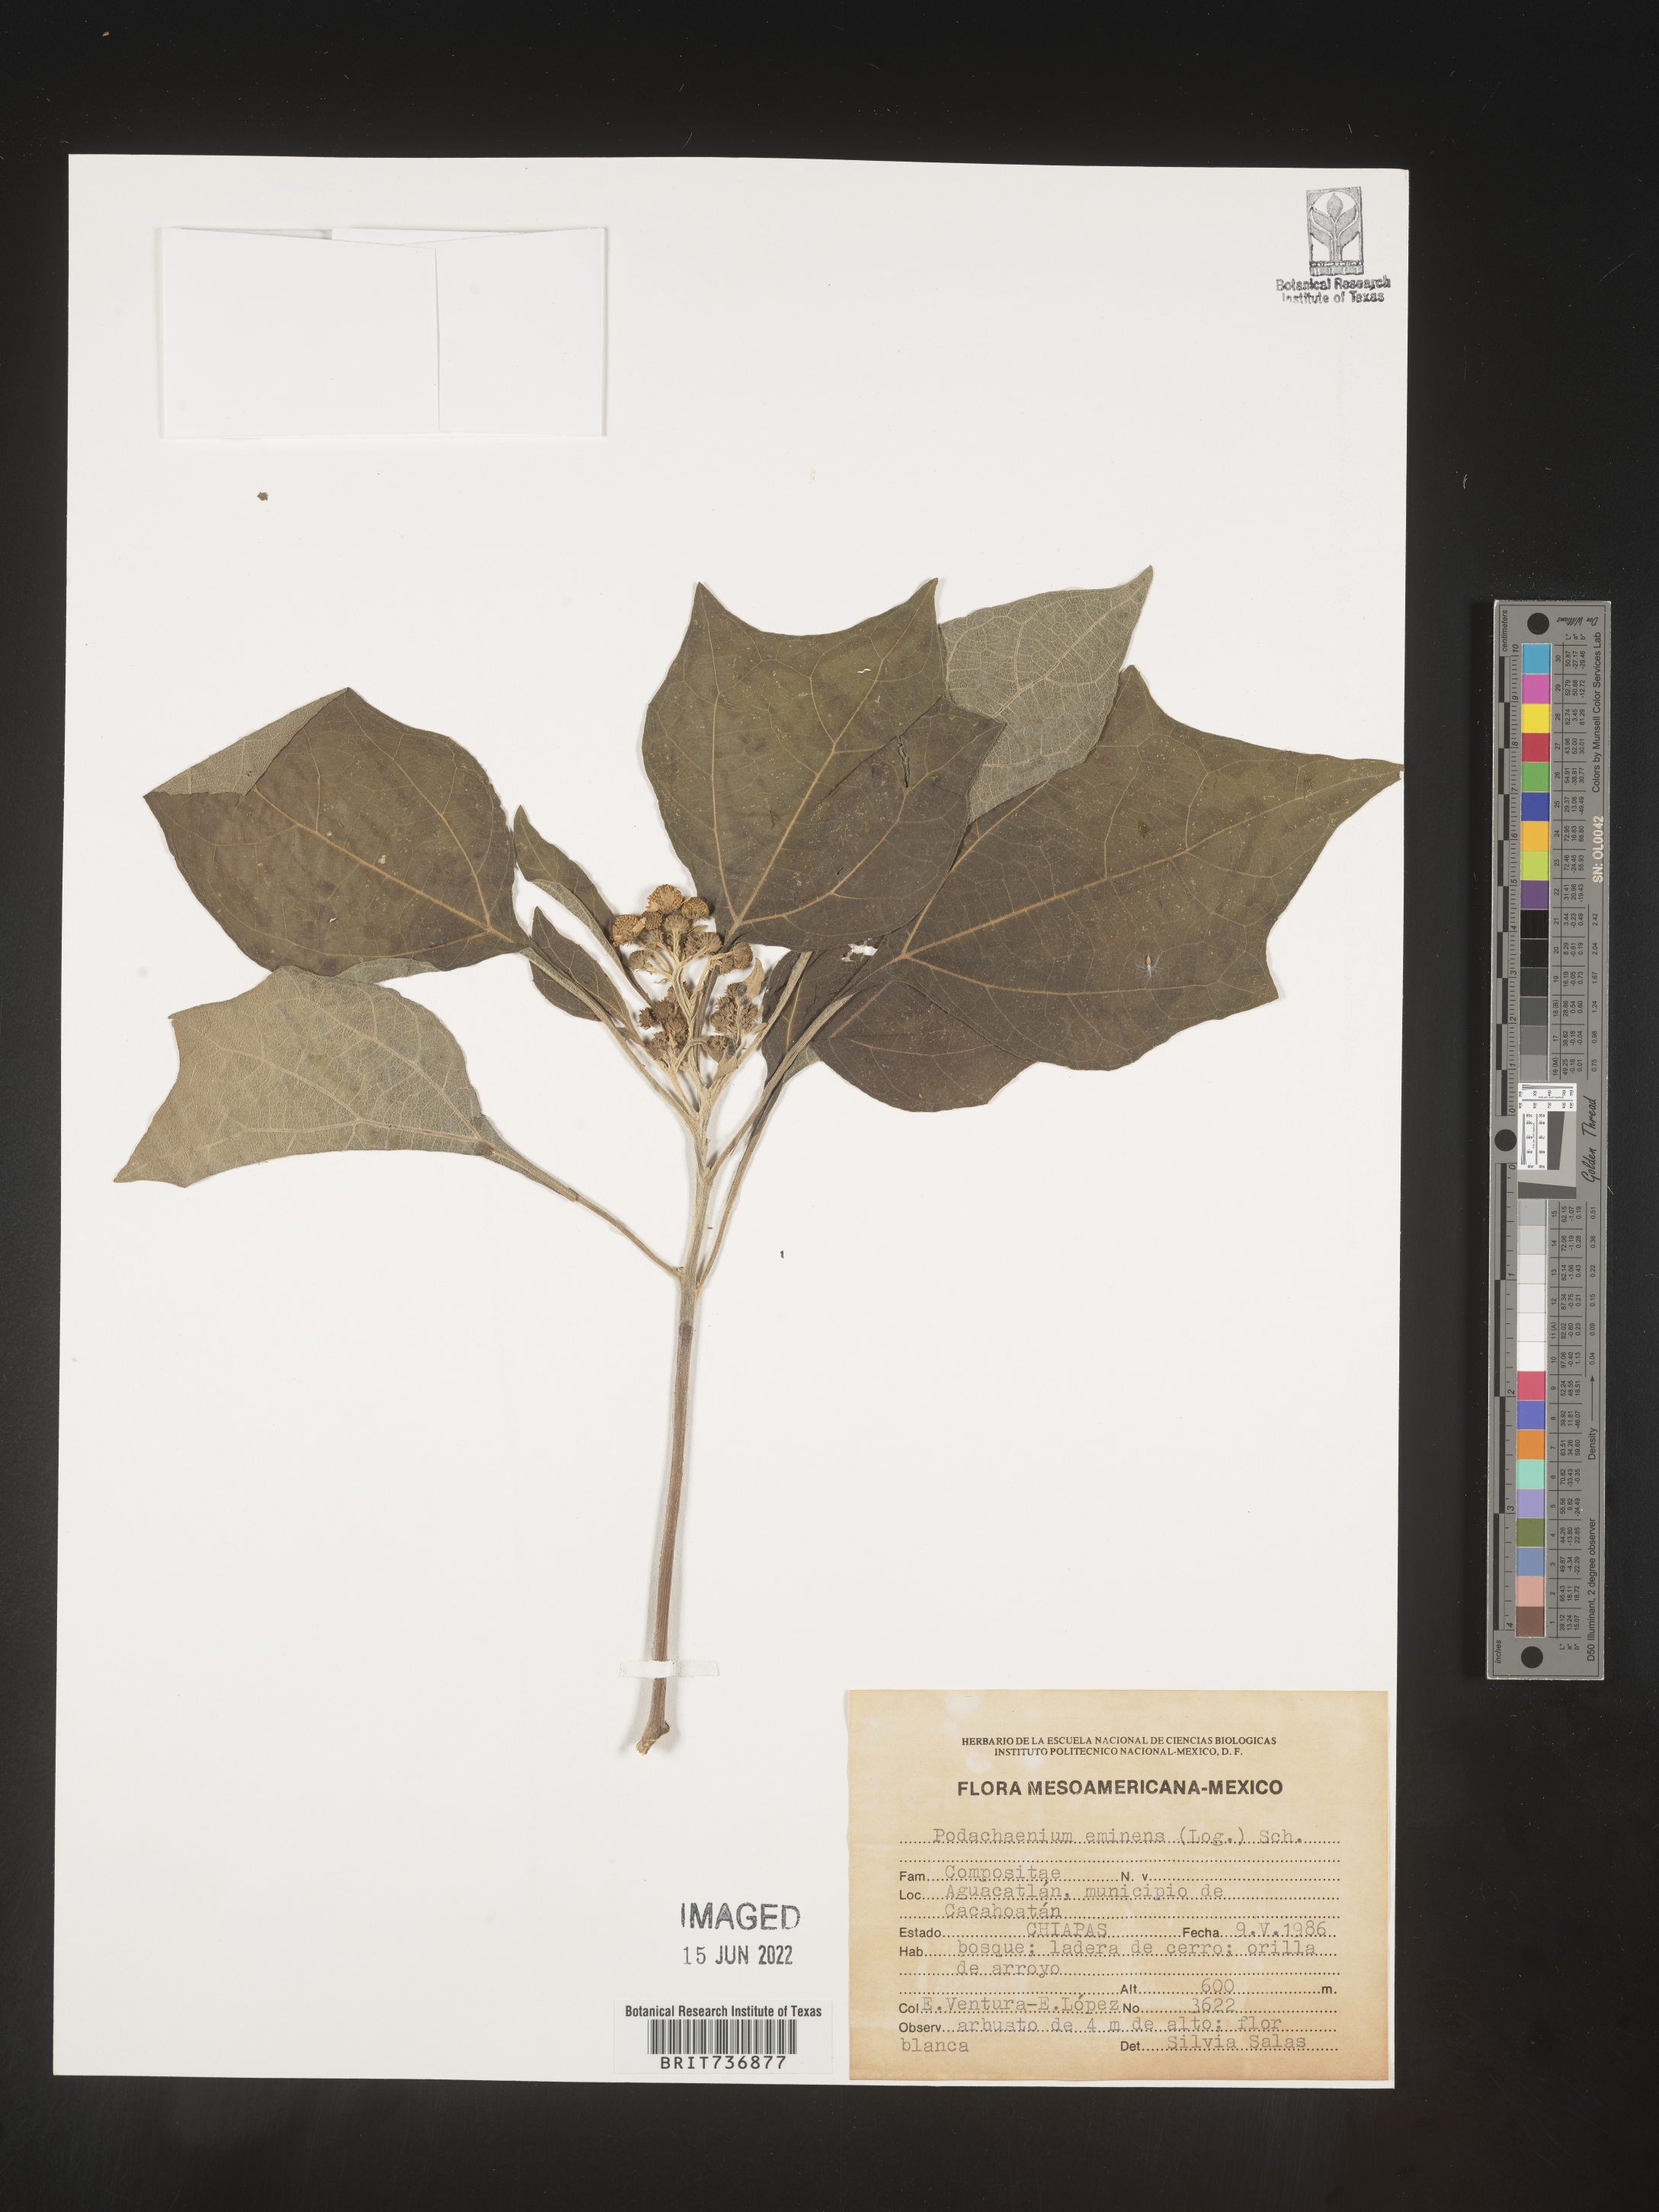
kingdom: Plantae
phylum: Tracheophyta
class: Magnoliopsida
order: Asterales
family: Asteraceae
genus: Podachaenium
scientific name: Podachaenium
